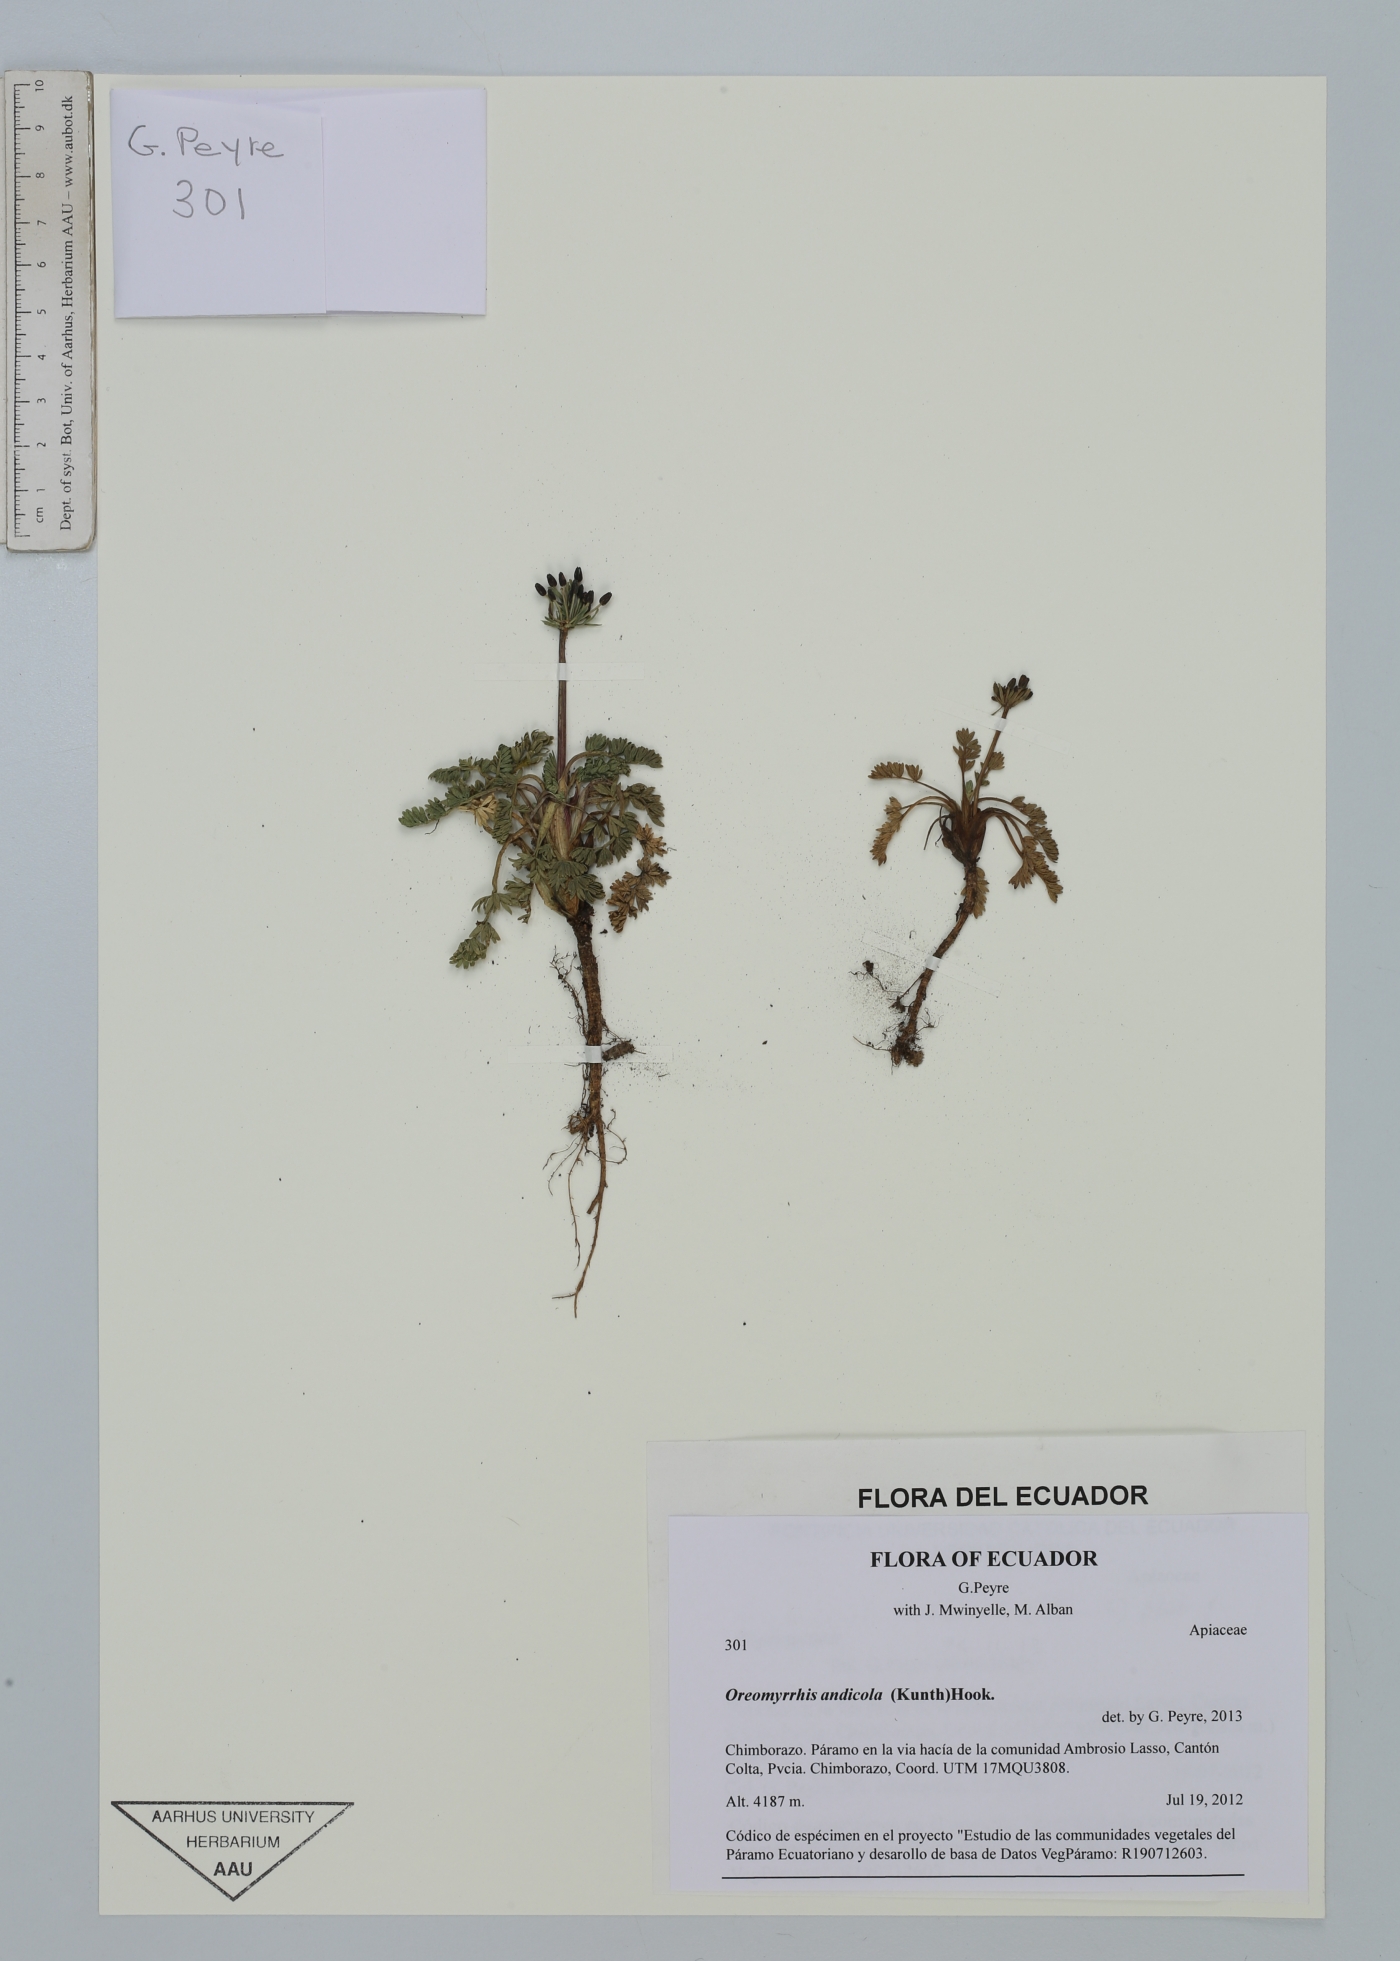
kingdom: Plantae
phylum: Tracheophyta
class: Magnoliopsida
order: Apiales
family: Apiaceae
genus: Chaerophyllum
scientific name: Chaerophyllum andicola
